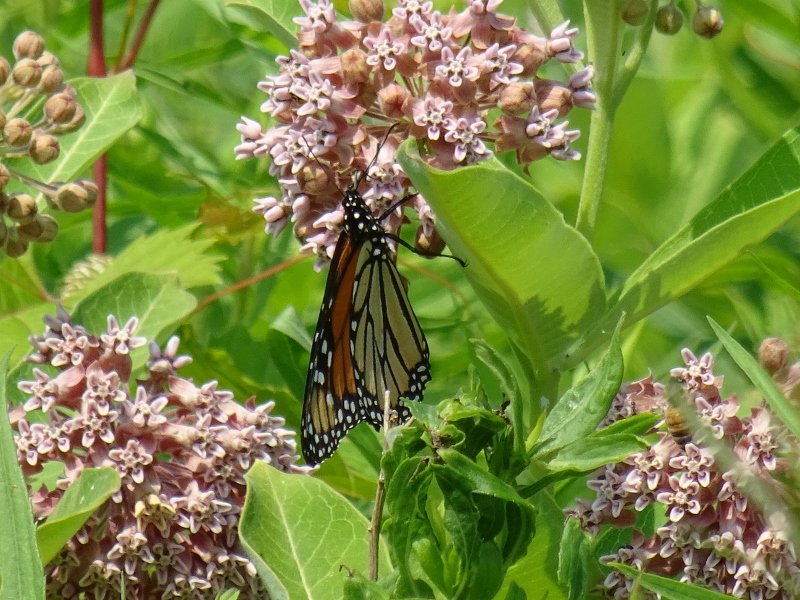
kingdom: Animalia
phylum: Arthropoda
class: Insecta
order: Lepidoptera
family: Nymphalidae
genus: Danaus
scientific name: Danaus plexippus
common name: Monarch
